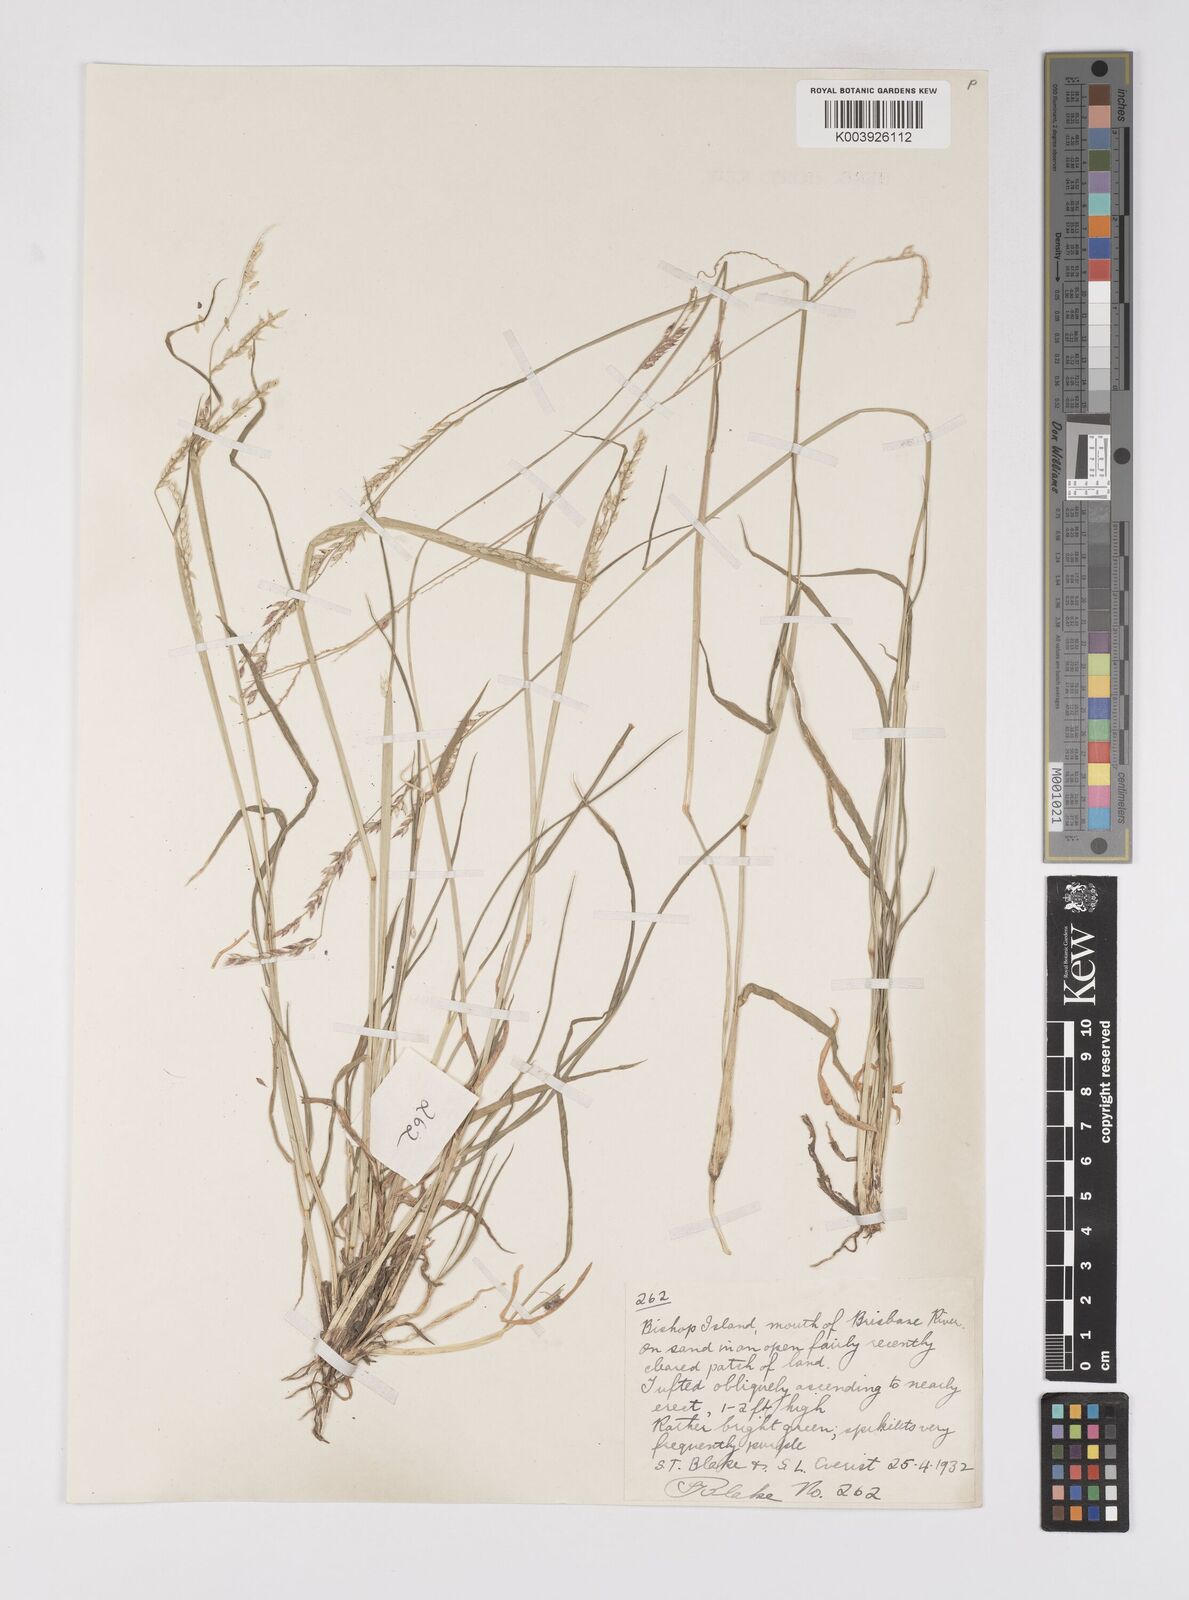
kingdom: Plantae
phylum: Tracheophyta
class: Liliopsida
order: Poales
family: Poaceae
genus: Eriochloa
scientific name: Eriochloa
